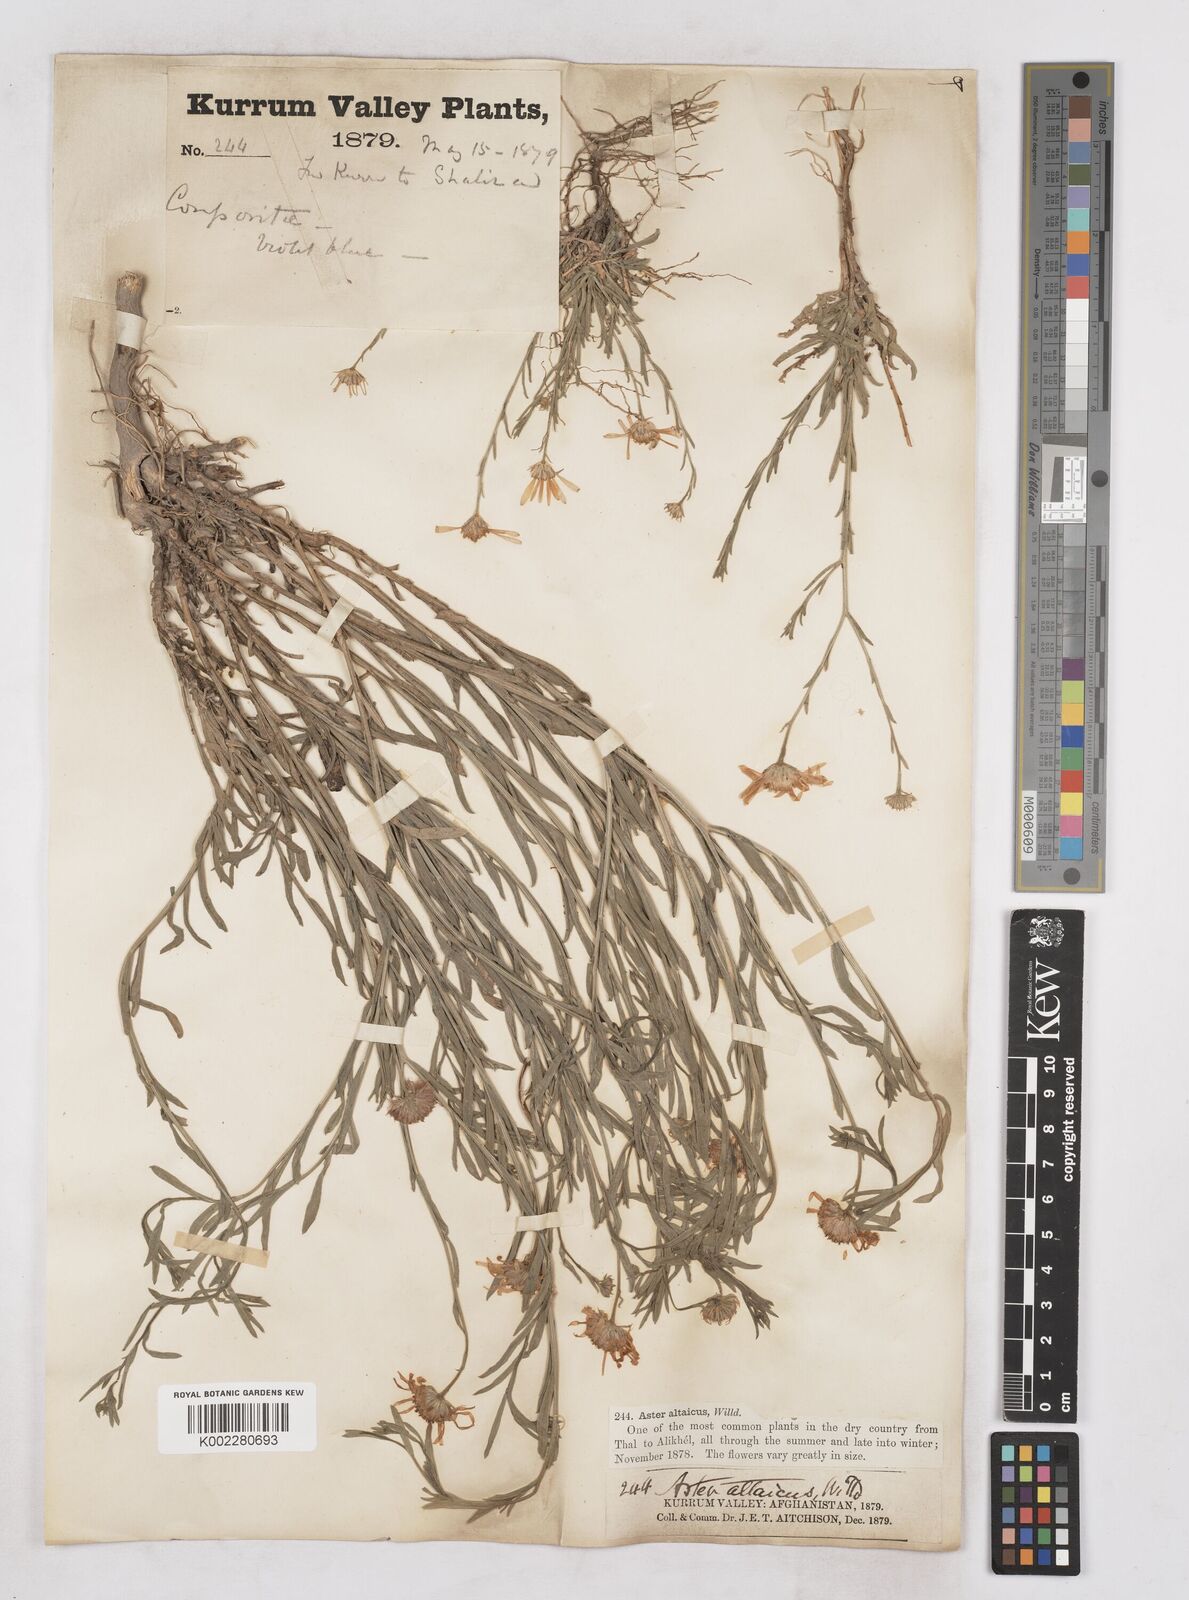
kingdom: Plantae
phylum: Tracheophyta
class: Magnoliopsida
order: Asterales
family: Asteraceae
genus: Heteropappus
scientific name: Heteropappus altaicus
